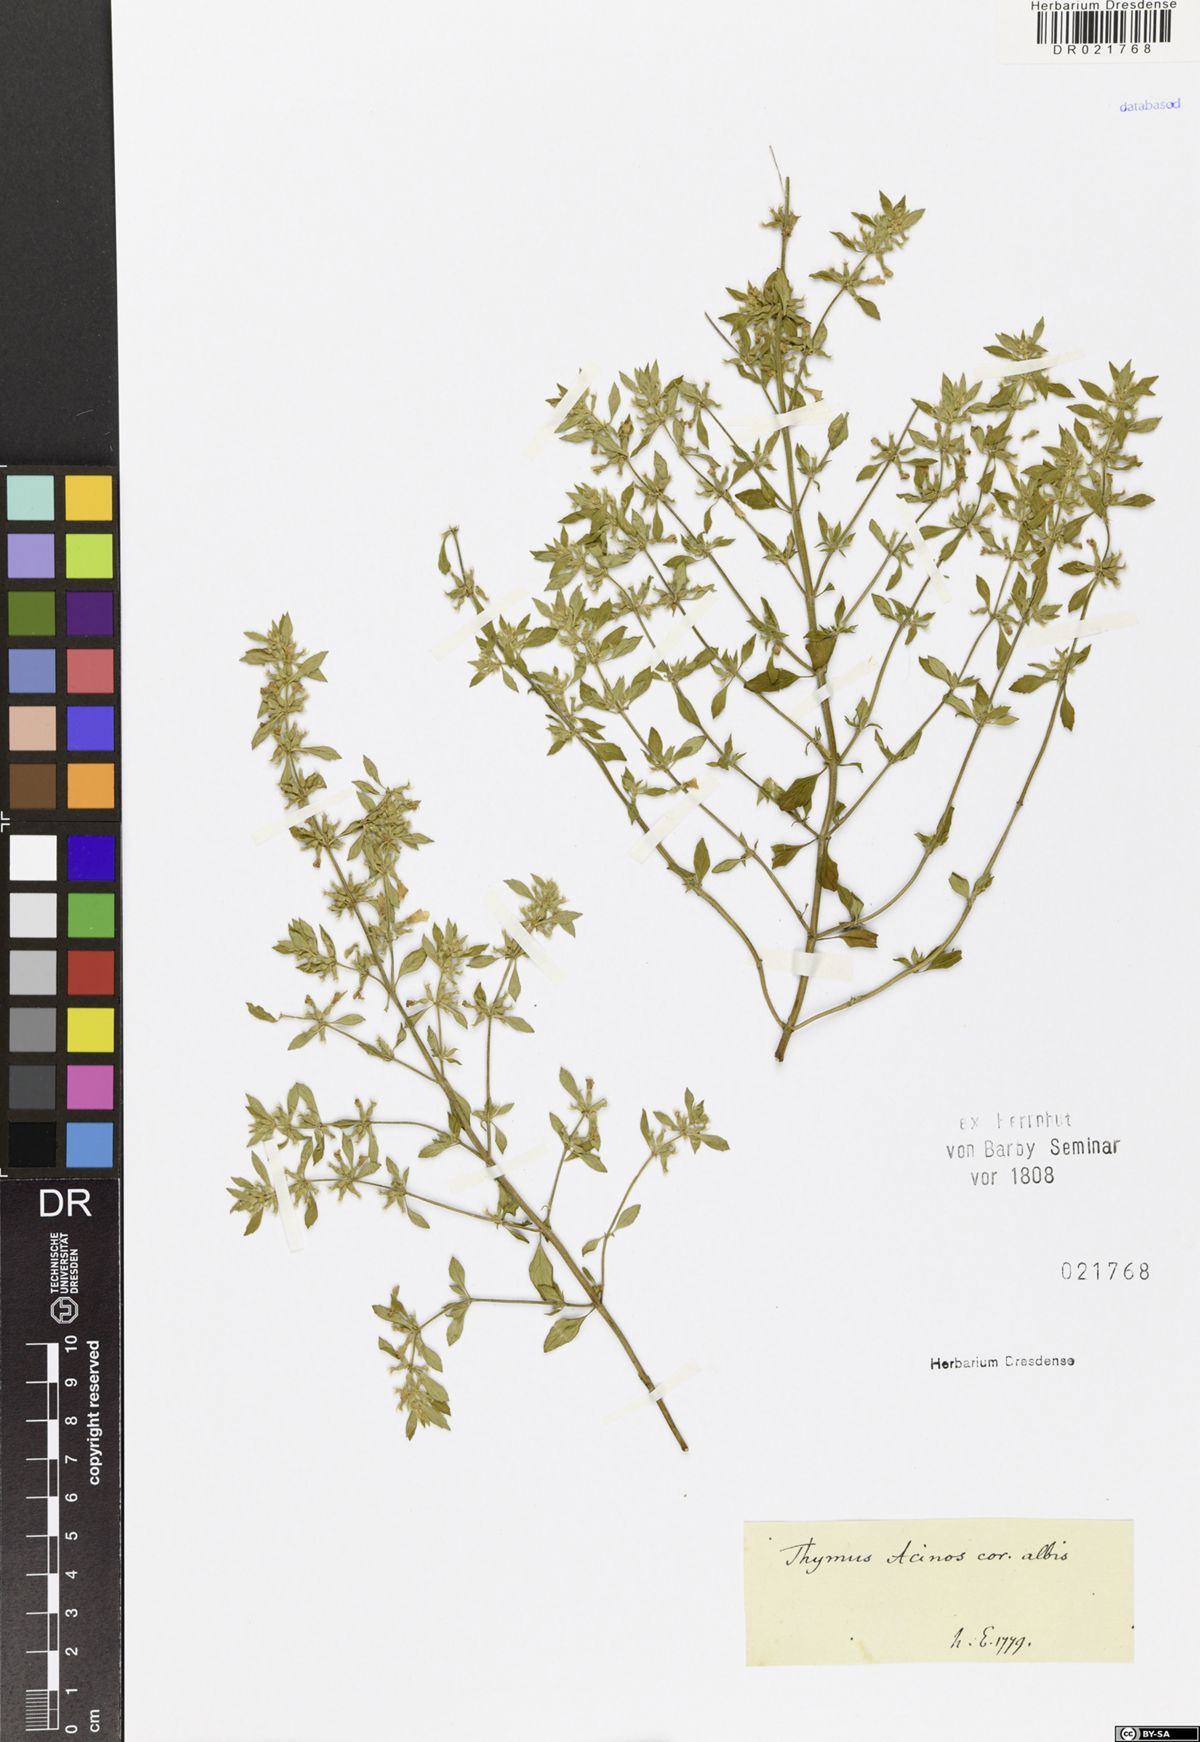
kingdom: Plantae
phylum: Tracheophyta
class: Magnoliopsida
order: Lamiales
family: Lamiaceae
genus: Clinopodium
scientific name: Clinopodium acinos
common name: Basil thyme
